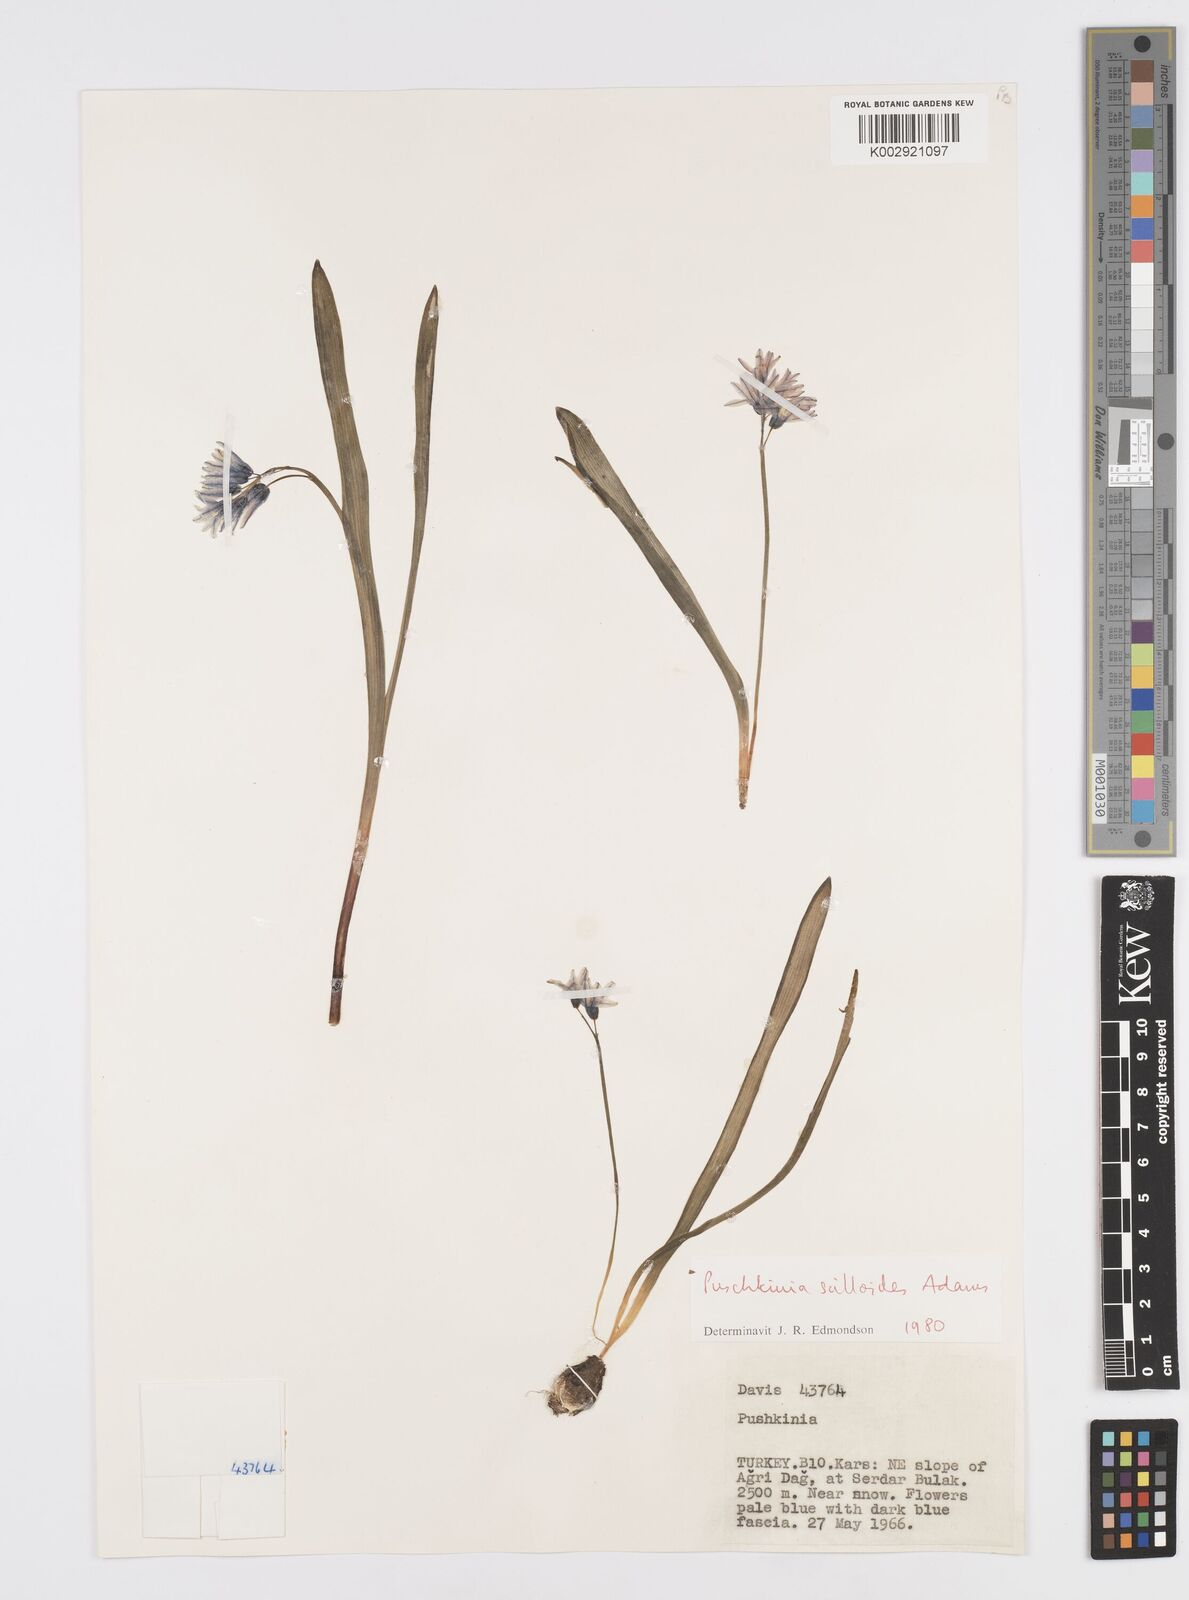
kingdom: Plantae
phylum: Tracheophyta
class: Liliopsida
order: Asparagales
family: Asparagaceae
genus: Puschkinia
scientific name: Puschkinia scilloides
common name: Striped squill
